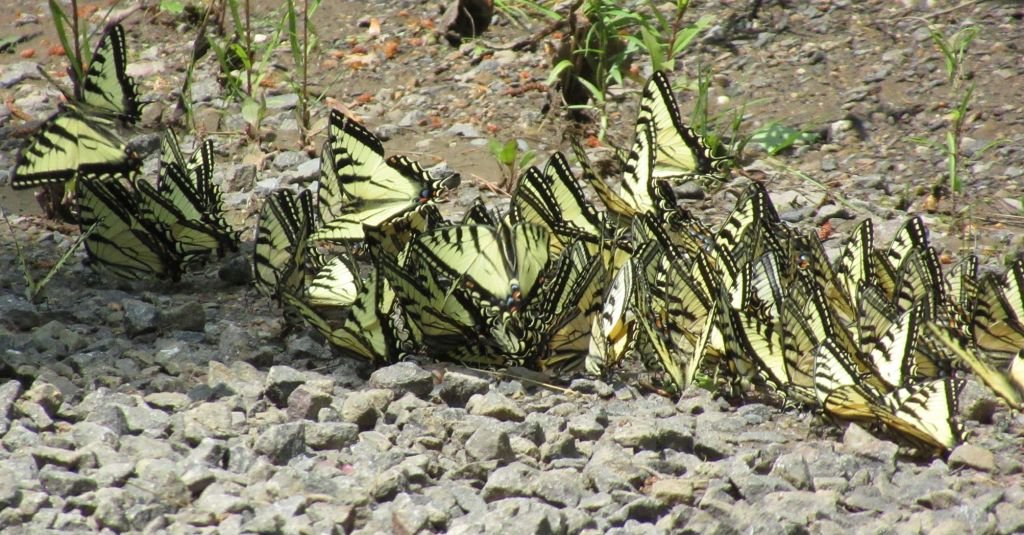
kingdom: Animalia
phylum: Arthropoda
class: Insecta
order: Lepidoptera
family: Papilionidae
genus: Pterourus
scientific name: Pterourus canadensis
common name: Canadian Tiger Swallowtail
